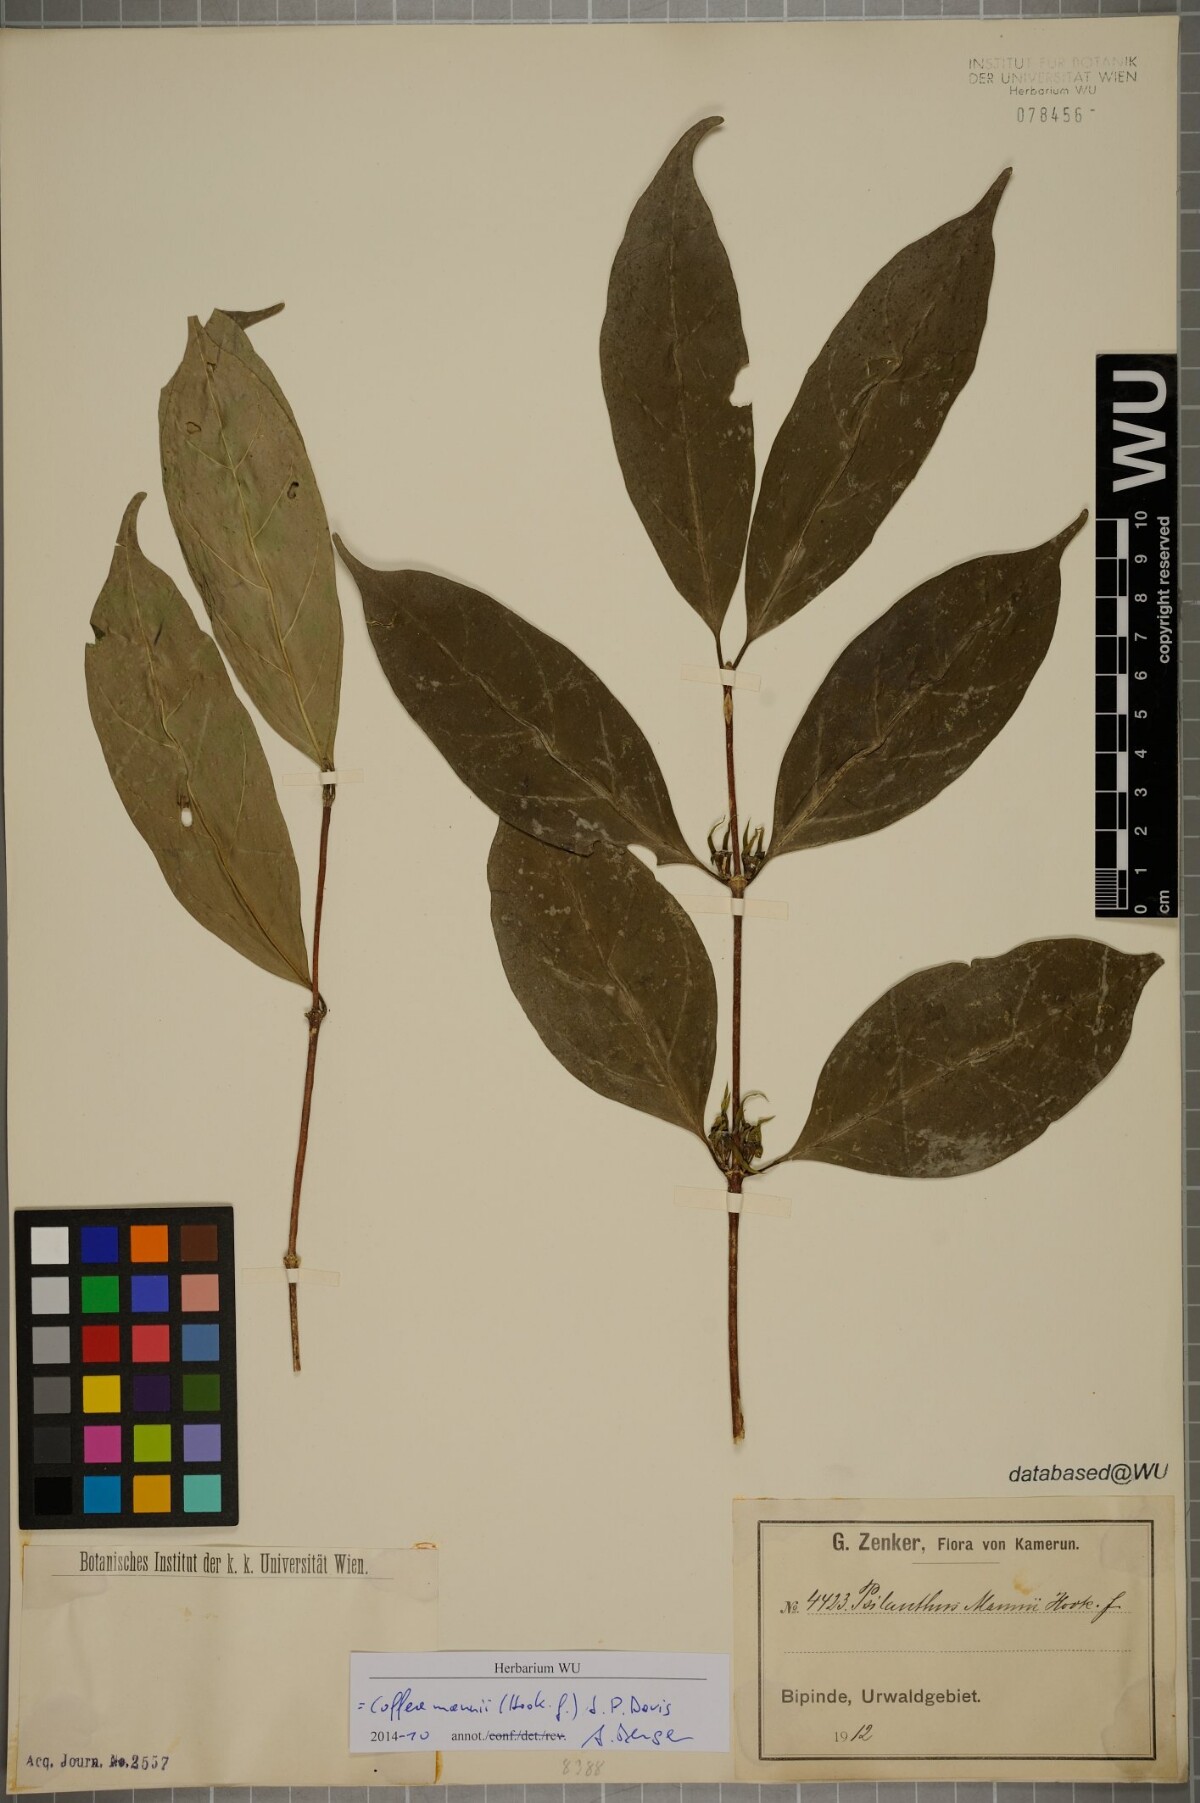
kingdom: Plantae
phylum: Tracheophyta
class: Magnoliopsida
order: Gentianales
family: Rubiaceae
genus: Coffea
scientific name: Coffea mannii
